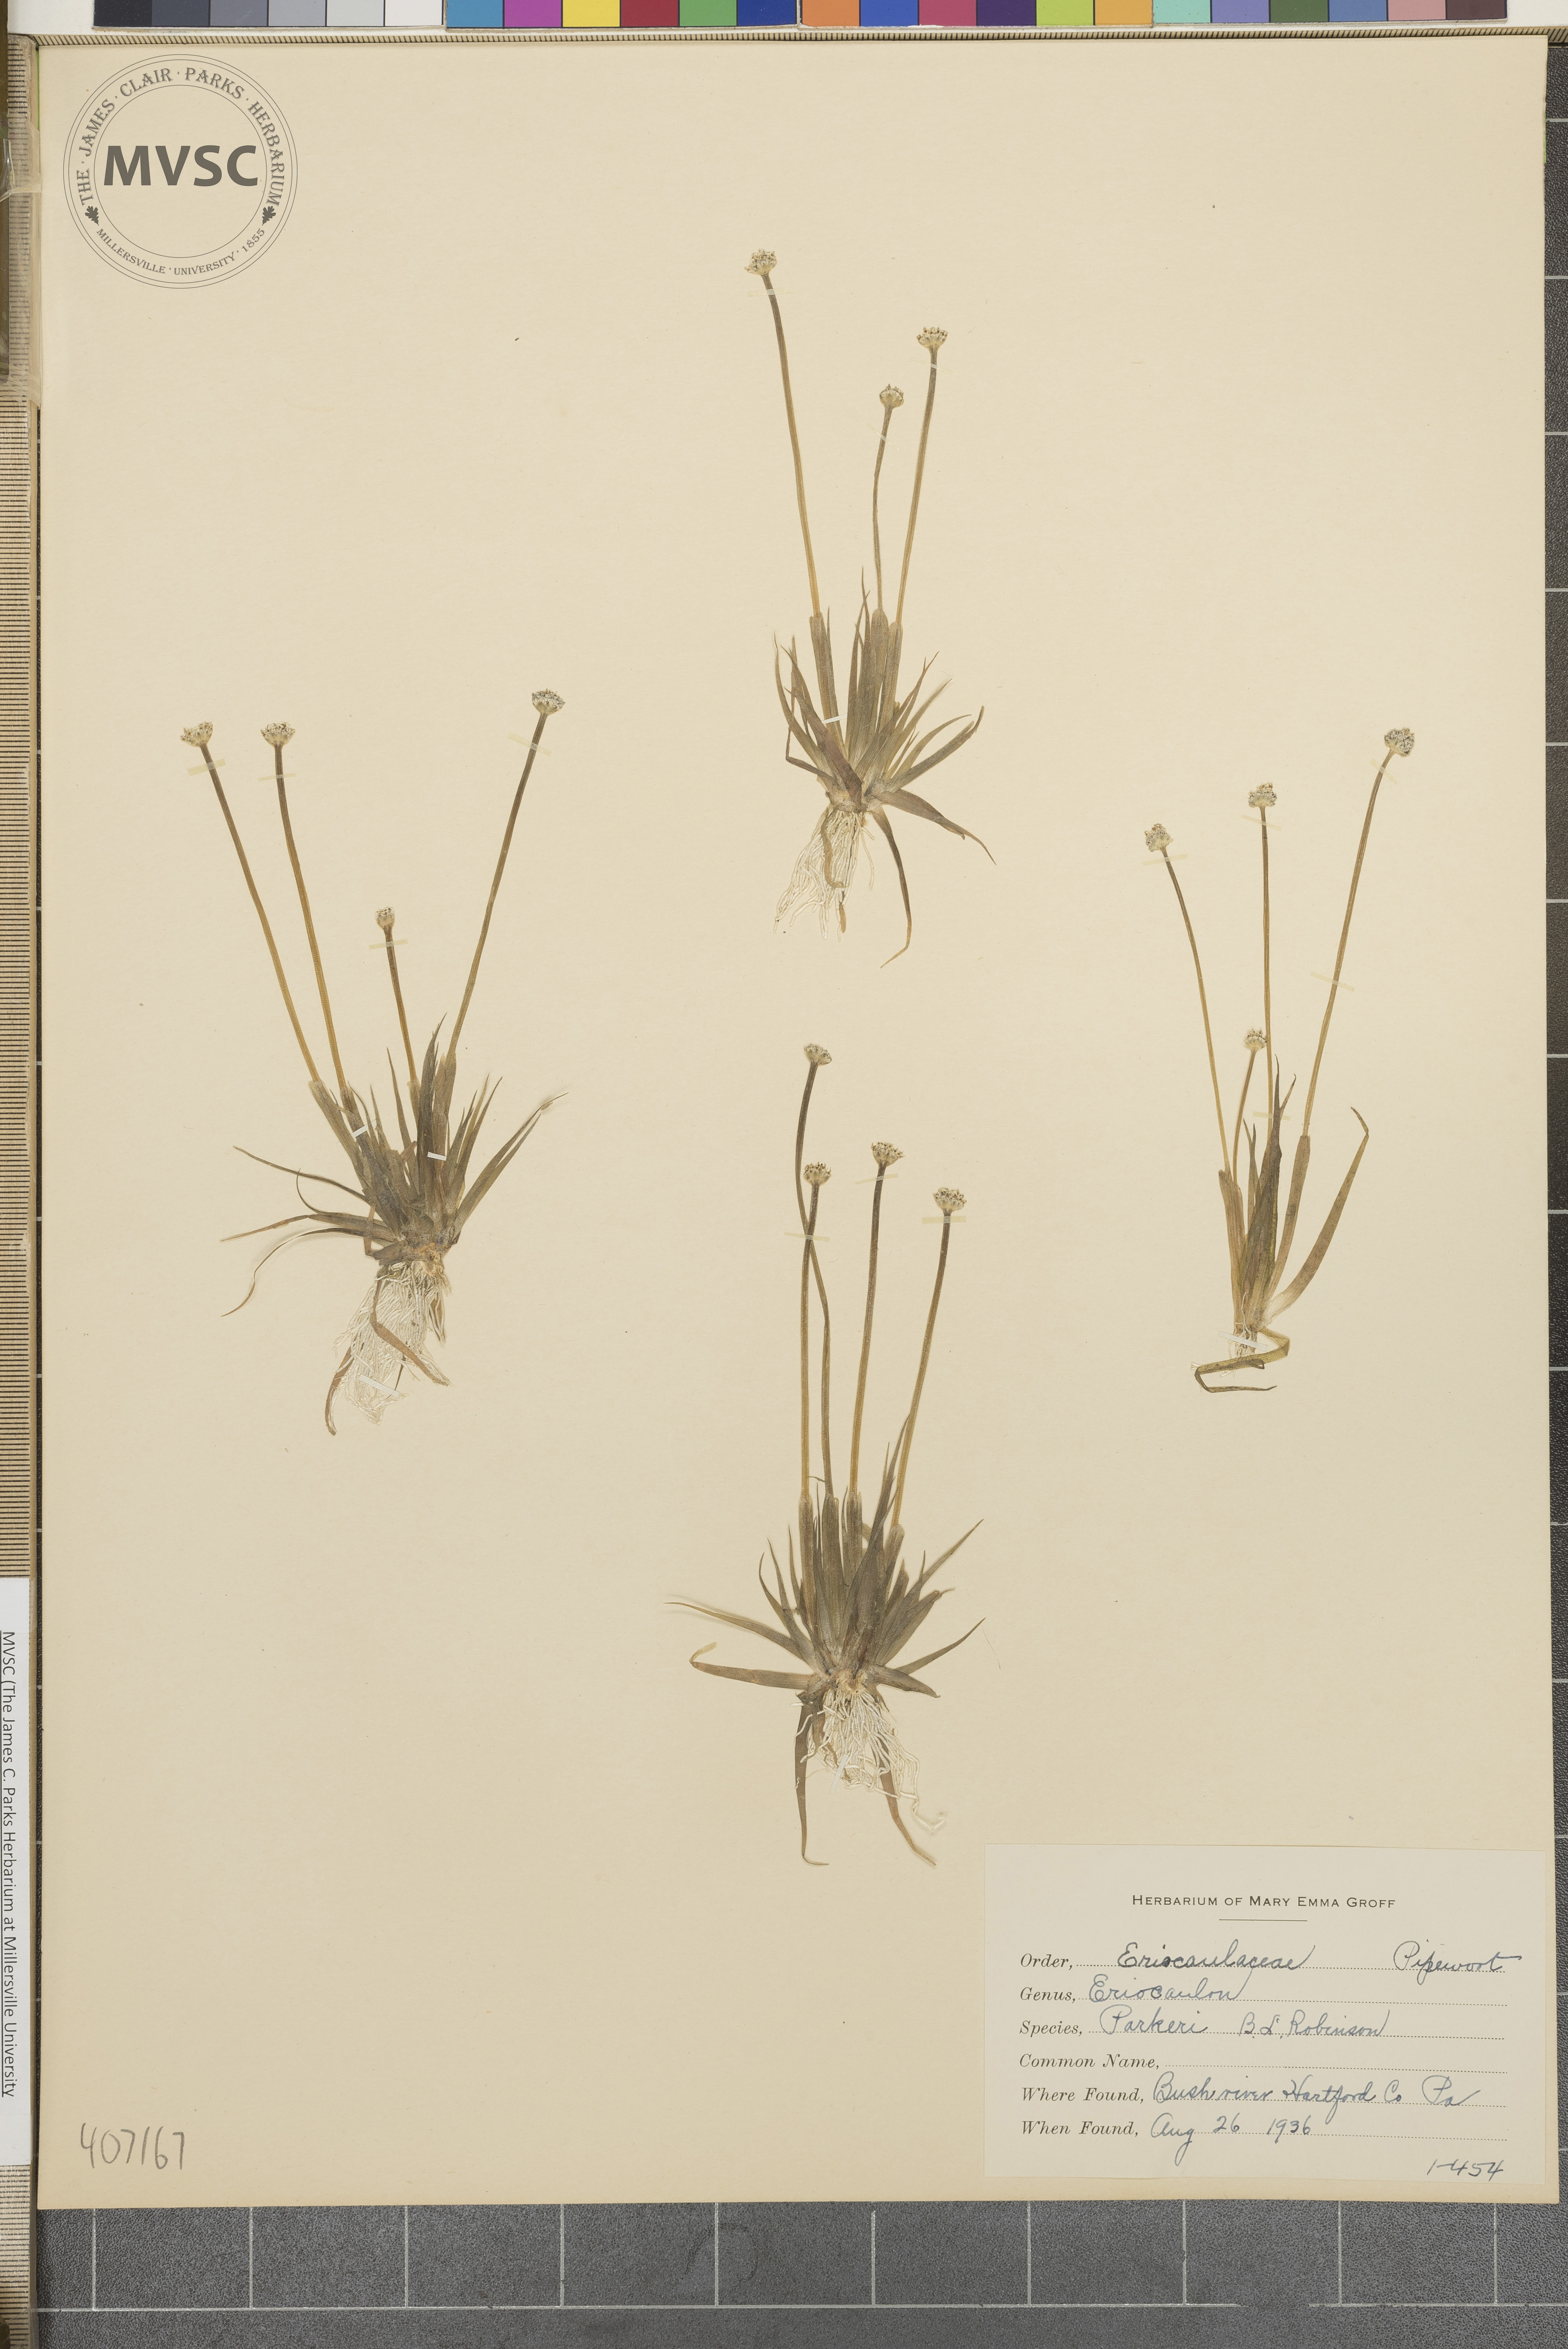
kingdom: Plantae
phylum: Tracheophyta
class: Liliopsida
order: Poales
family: Eriocaulaceae
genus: Eriocaulon
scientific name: Eriocaulon parkeri
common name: Parker's pipewort
